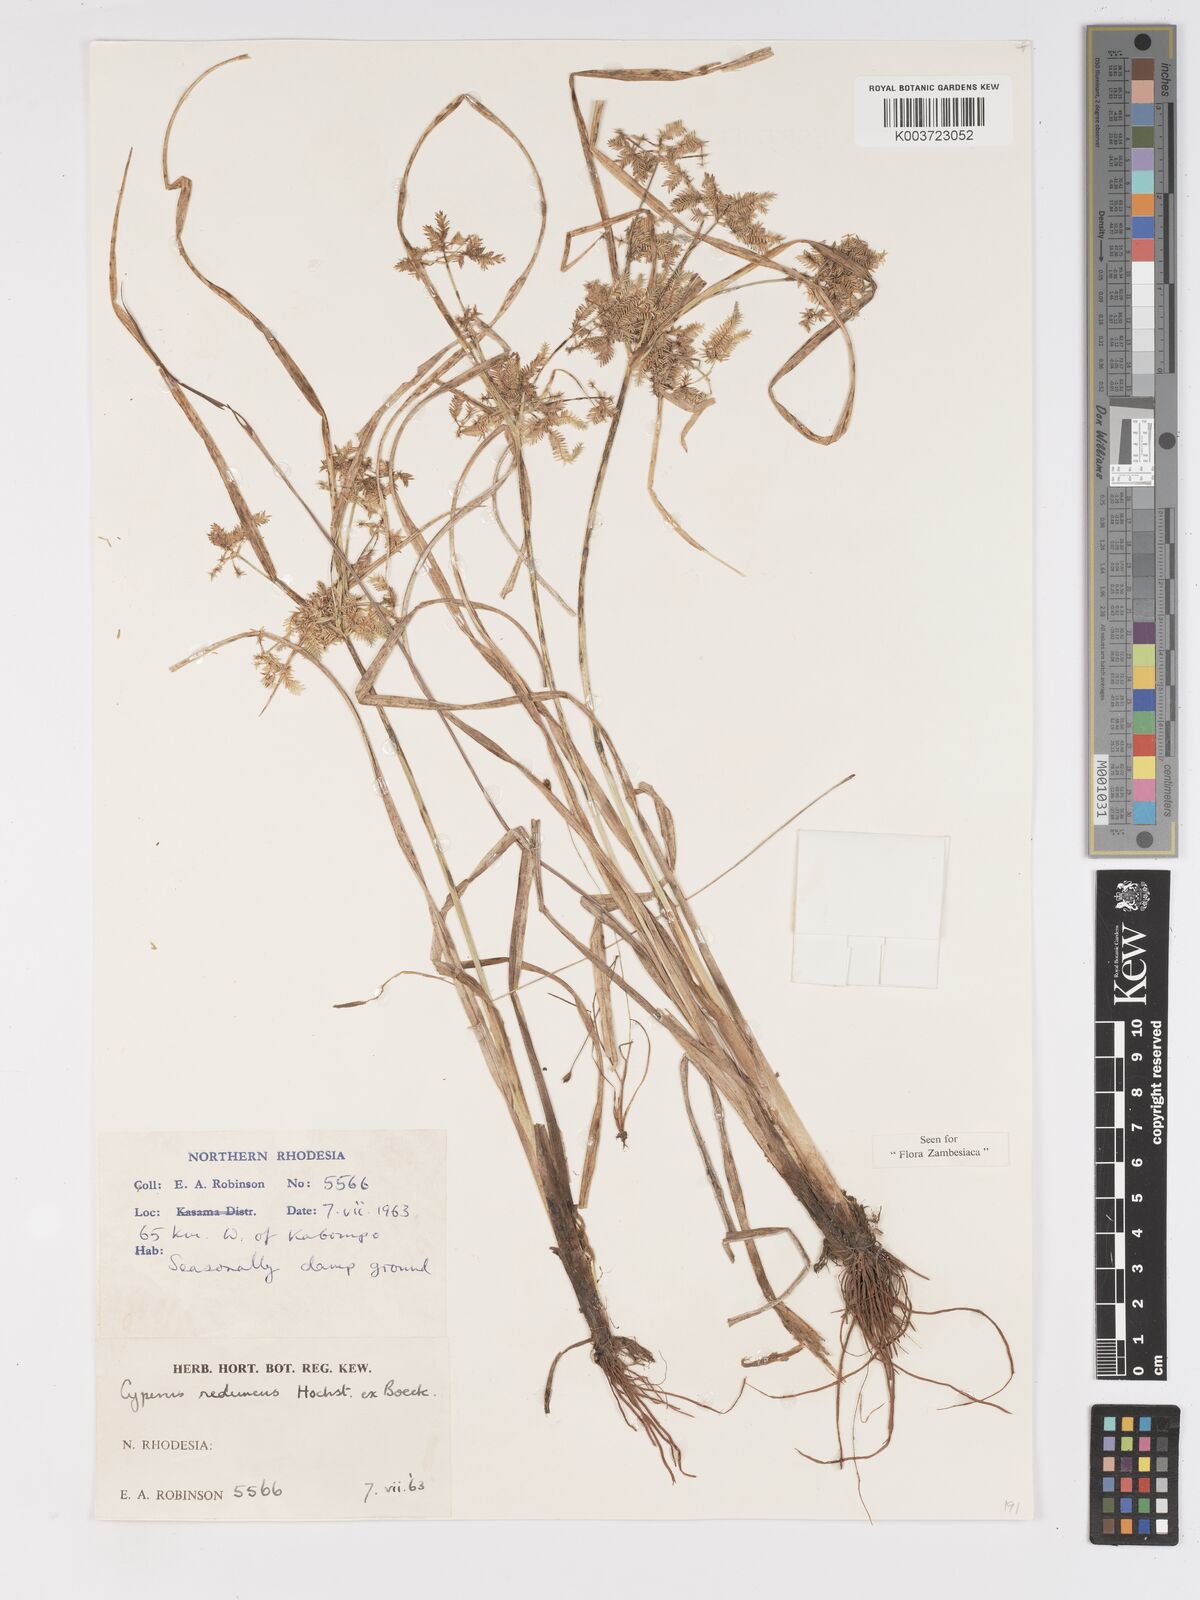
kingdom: Plantae
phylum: Tracheophyta
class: Liliopsida
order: Poales
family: Cyperaceae
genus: Cyperus
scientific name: Cyperus reduncus
